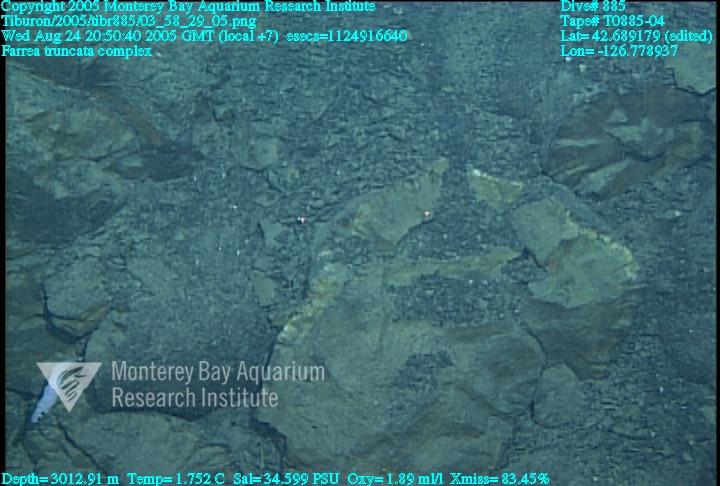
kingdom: Animalia
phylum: Porifera
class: Hexactinellida
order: Sceptrulophora
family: Farreidae
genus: Farrea
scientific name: Farrea truncata
